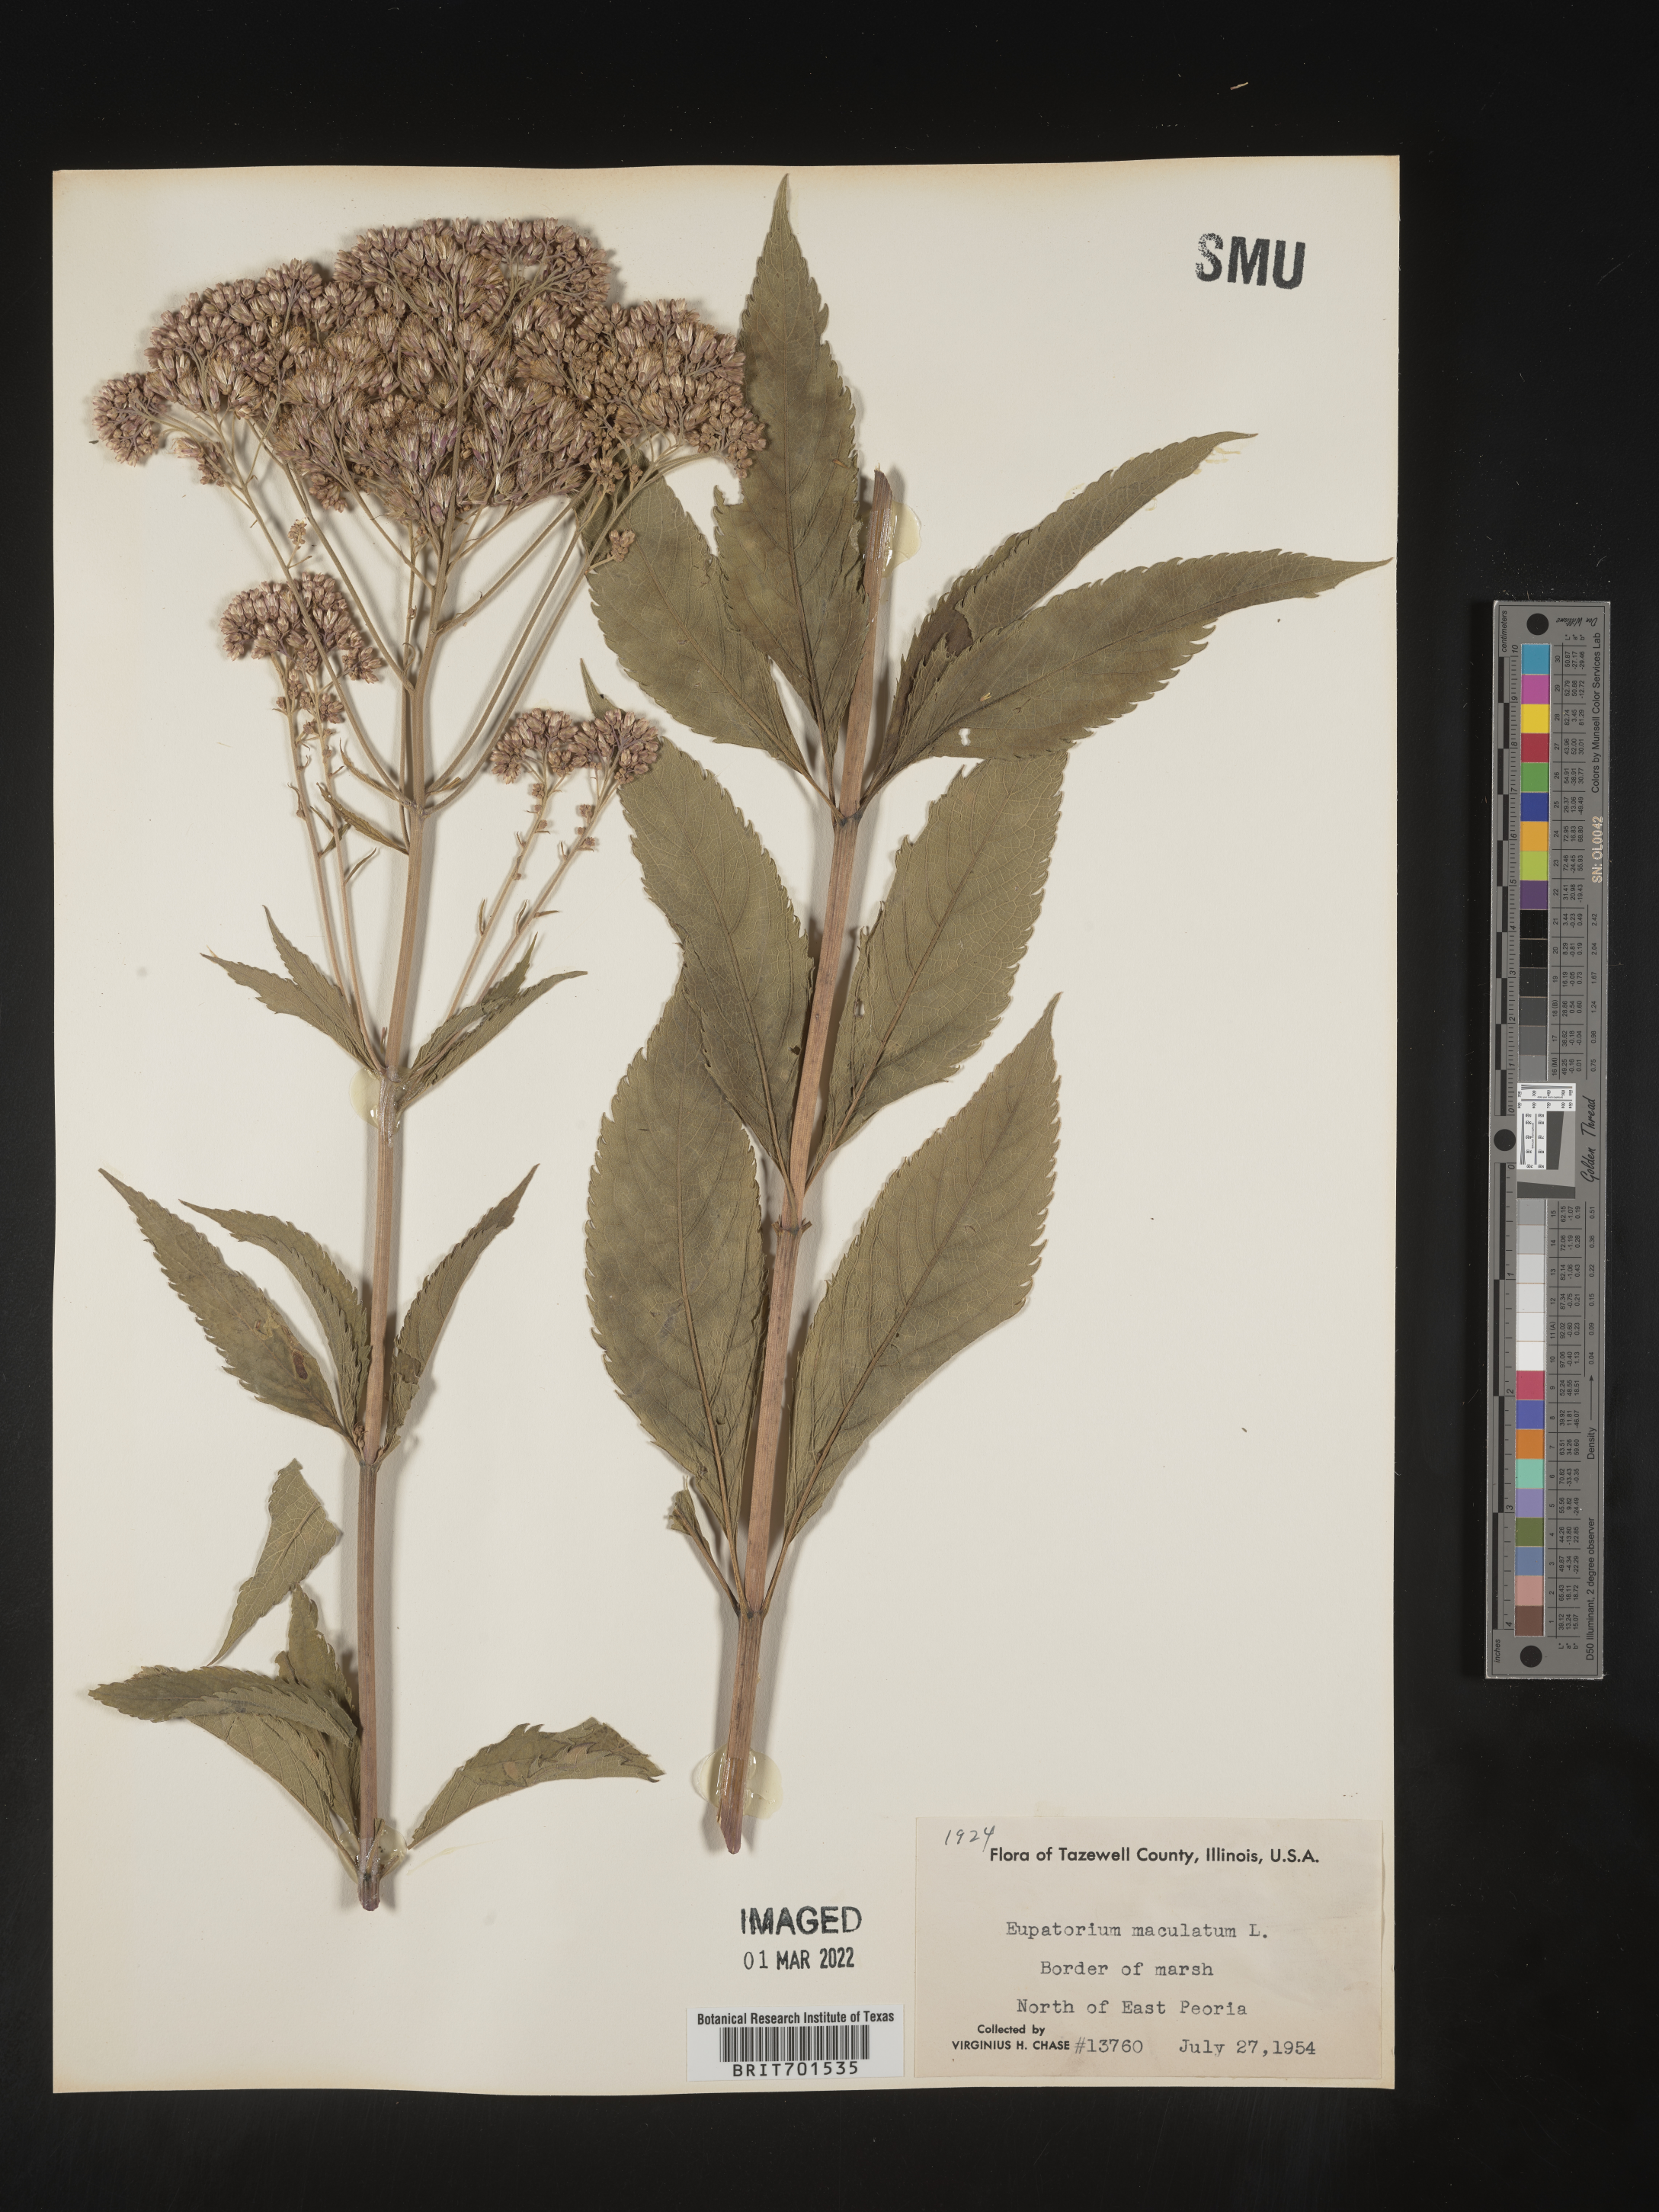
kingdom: Plantae
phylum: Tracheophyta
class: Magnoliopsida
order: Asterales
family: Asteraceae
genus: Eutrochium
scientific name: Eutrochium maculatum
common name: Spotted joe pye weed
